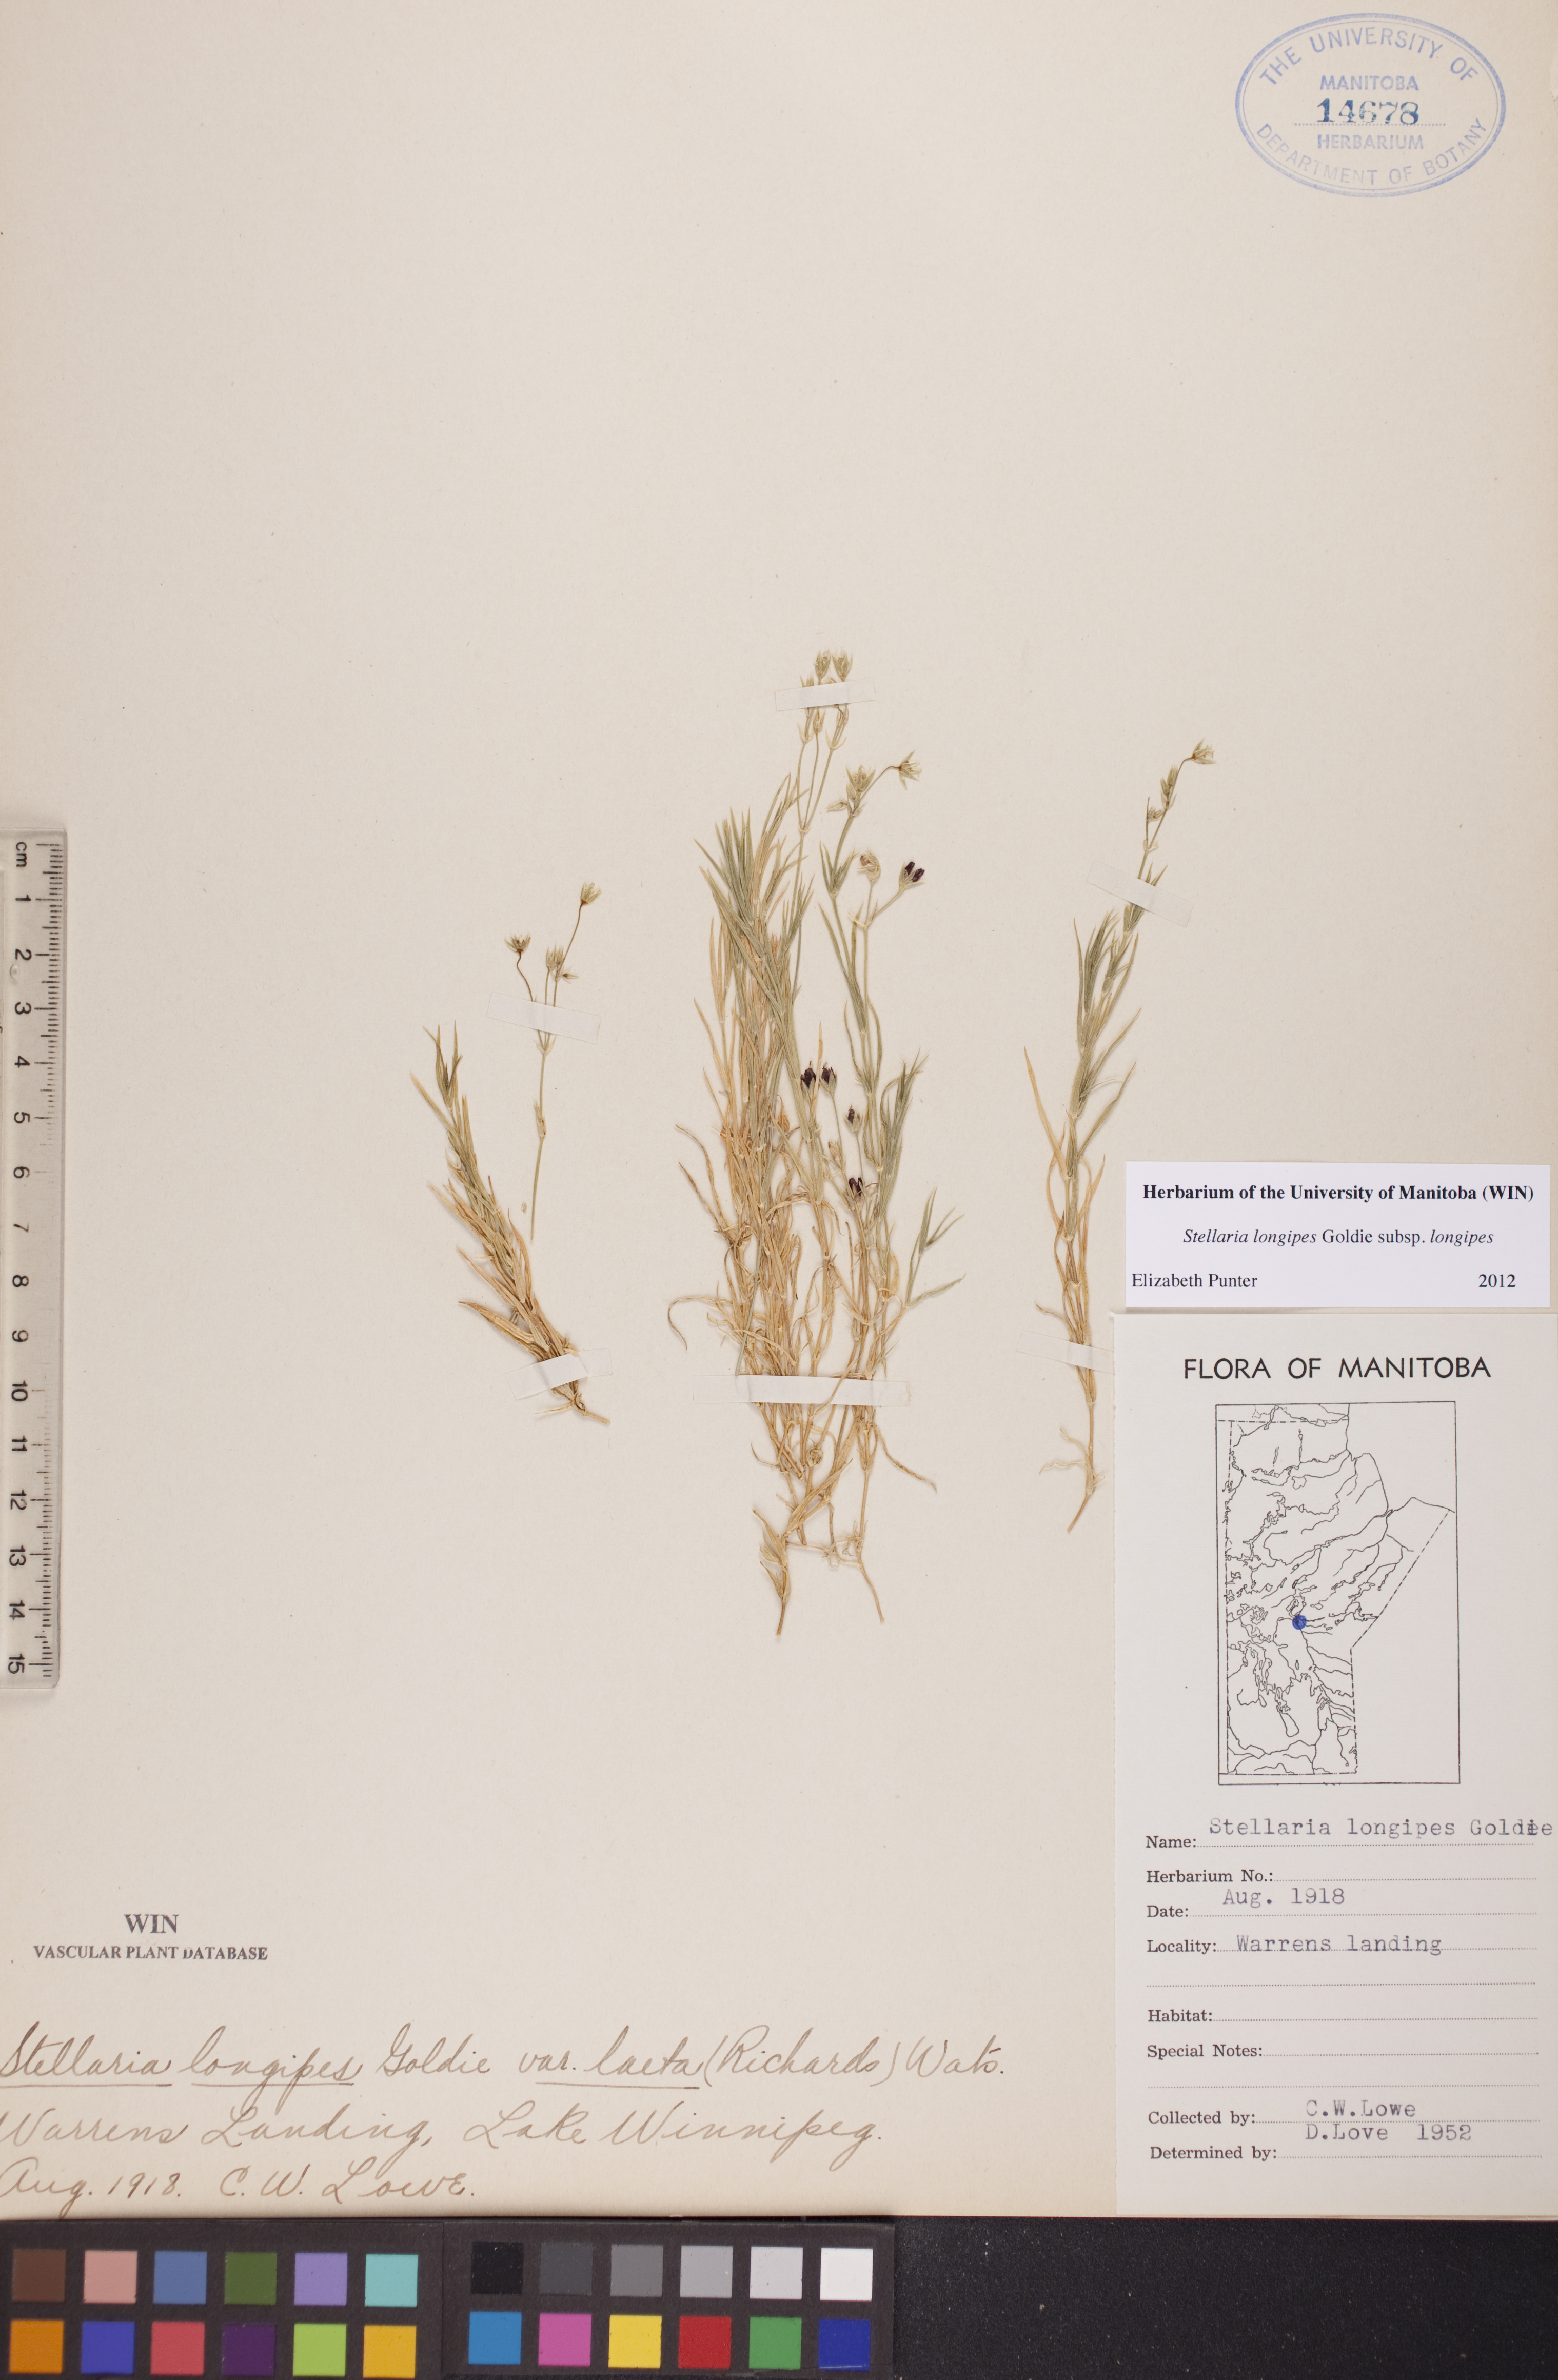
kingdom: Plantae
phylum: Tracheophyta
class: Magnoliopsida
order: Caryophyllales
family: Caryophyllaceae
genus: Stellaria
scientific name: Stellaria longipes
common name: Goldie's starwort
